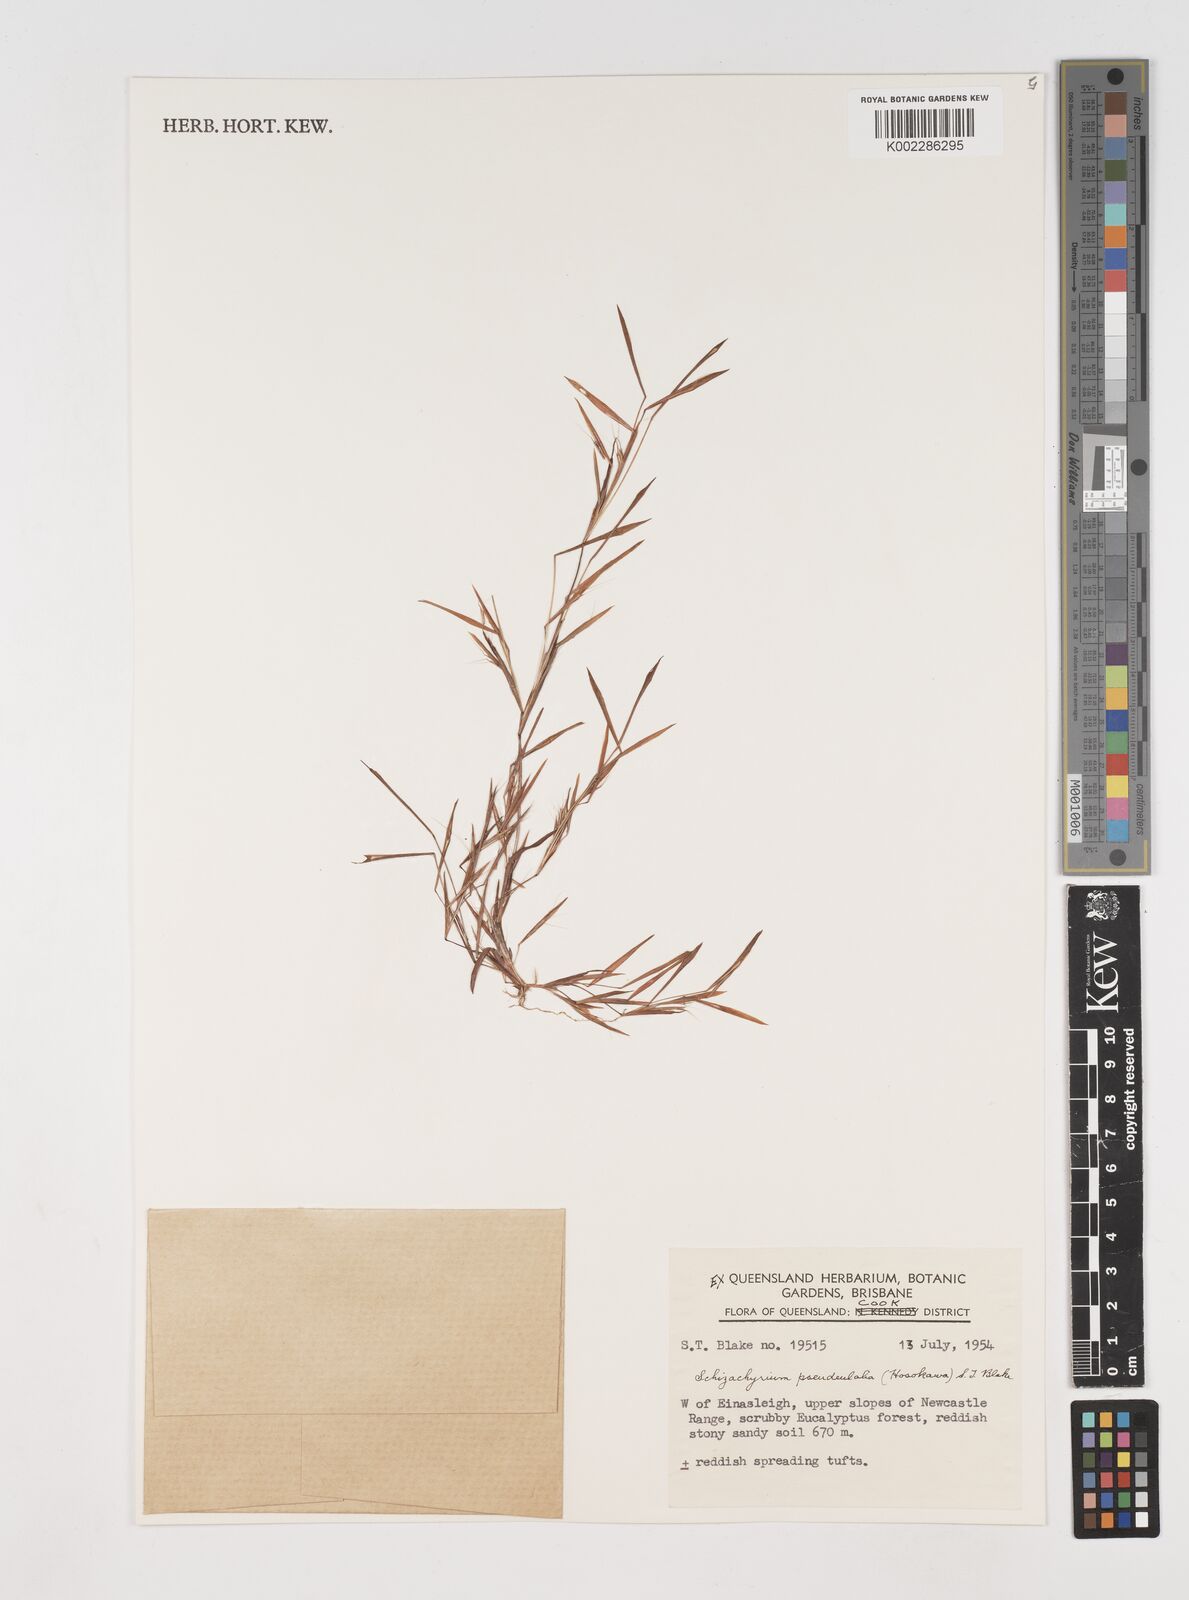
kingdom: Plantae
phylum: Tracheophyta
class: Liliopsida
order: Poales
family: Poaceae
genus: Schizachyrium
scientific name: Schizachyrium pseudeulalia
